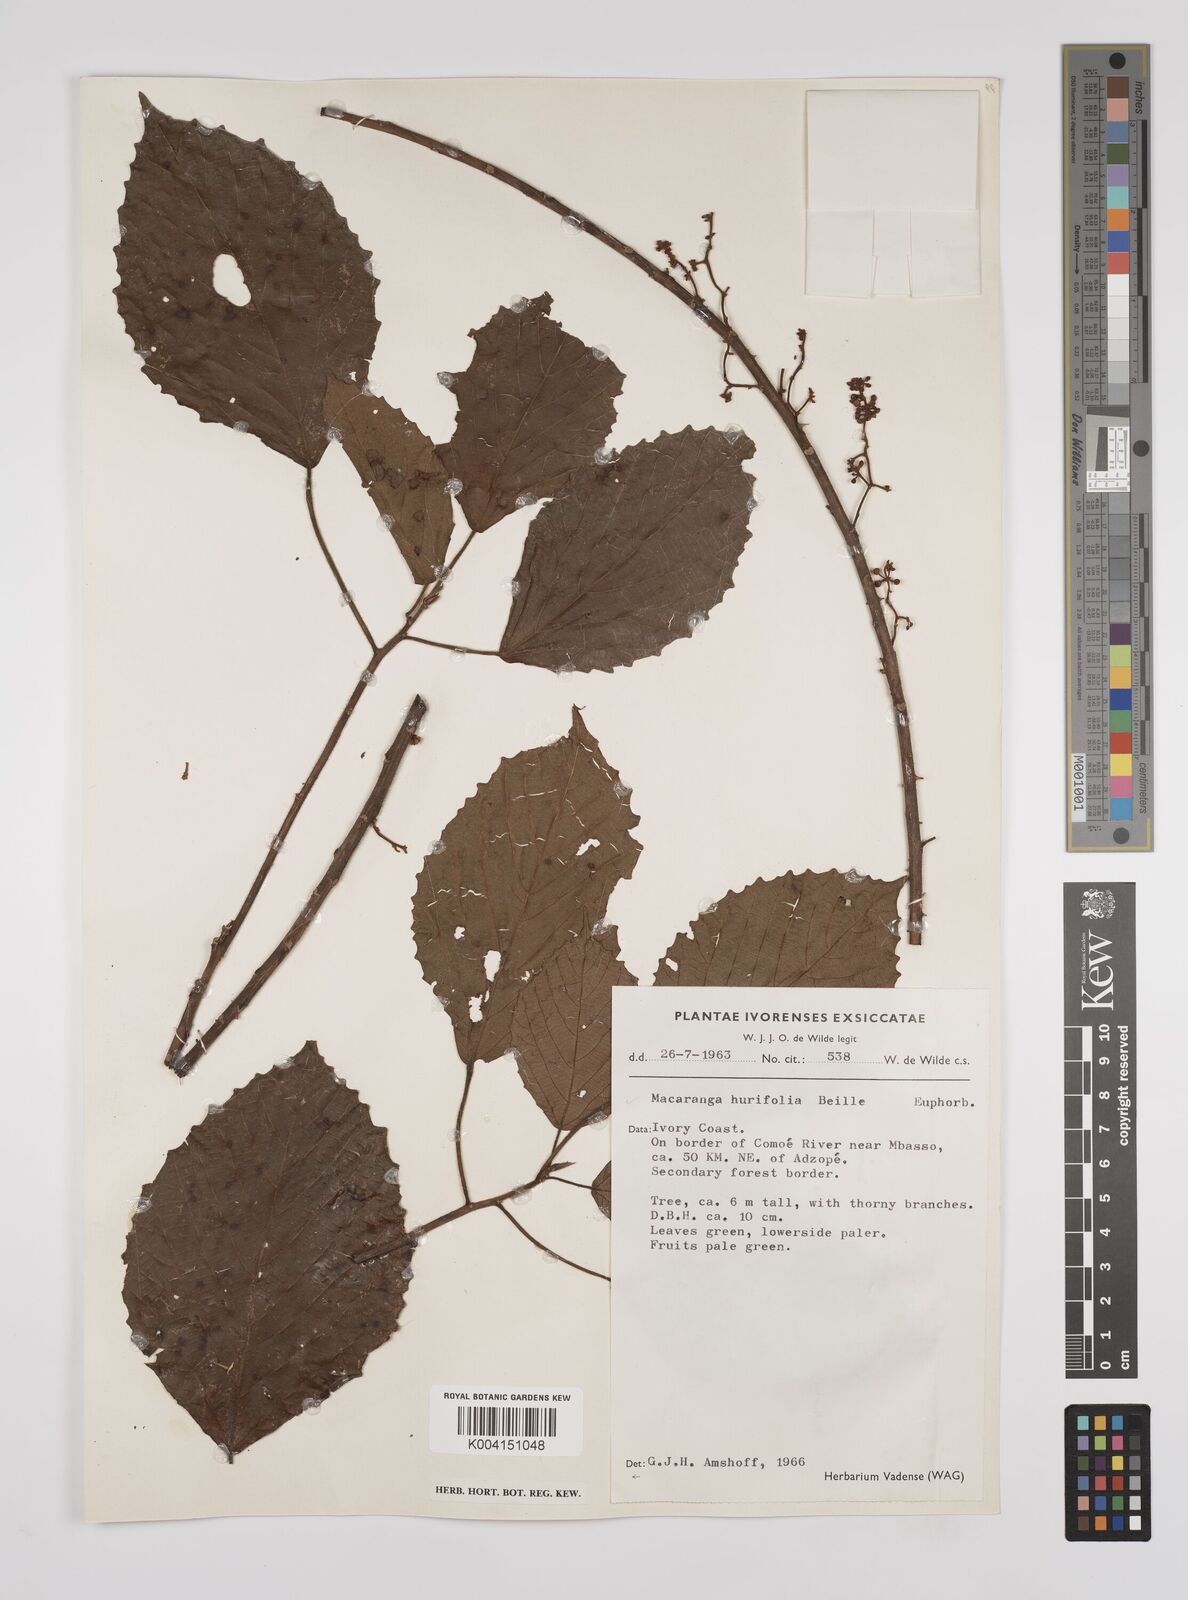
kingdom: Plantae
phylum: Tracheophyta
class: Magnoliopsida
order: Malpighiales
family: Euphorbiaceae
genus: Macaranga
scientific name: Macaranga hurifolia
